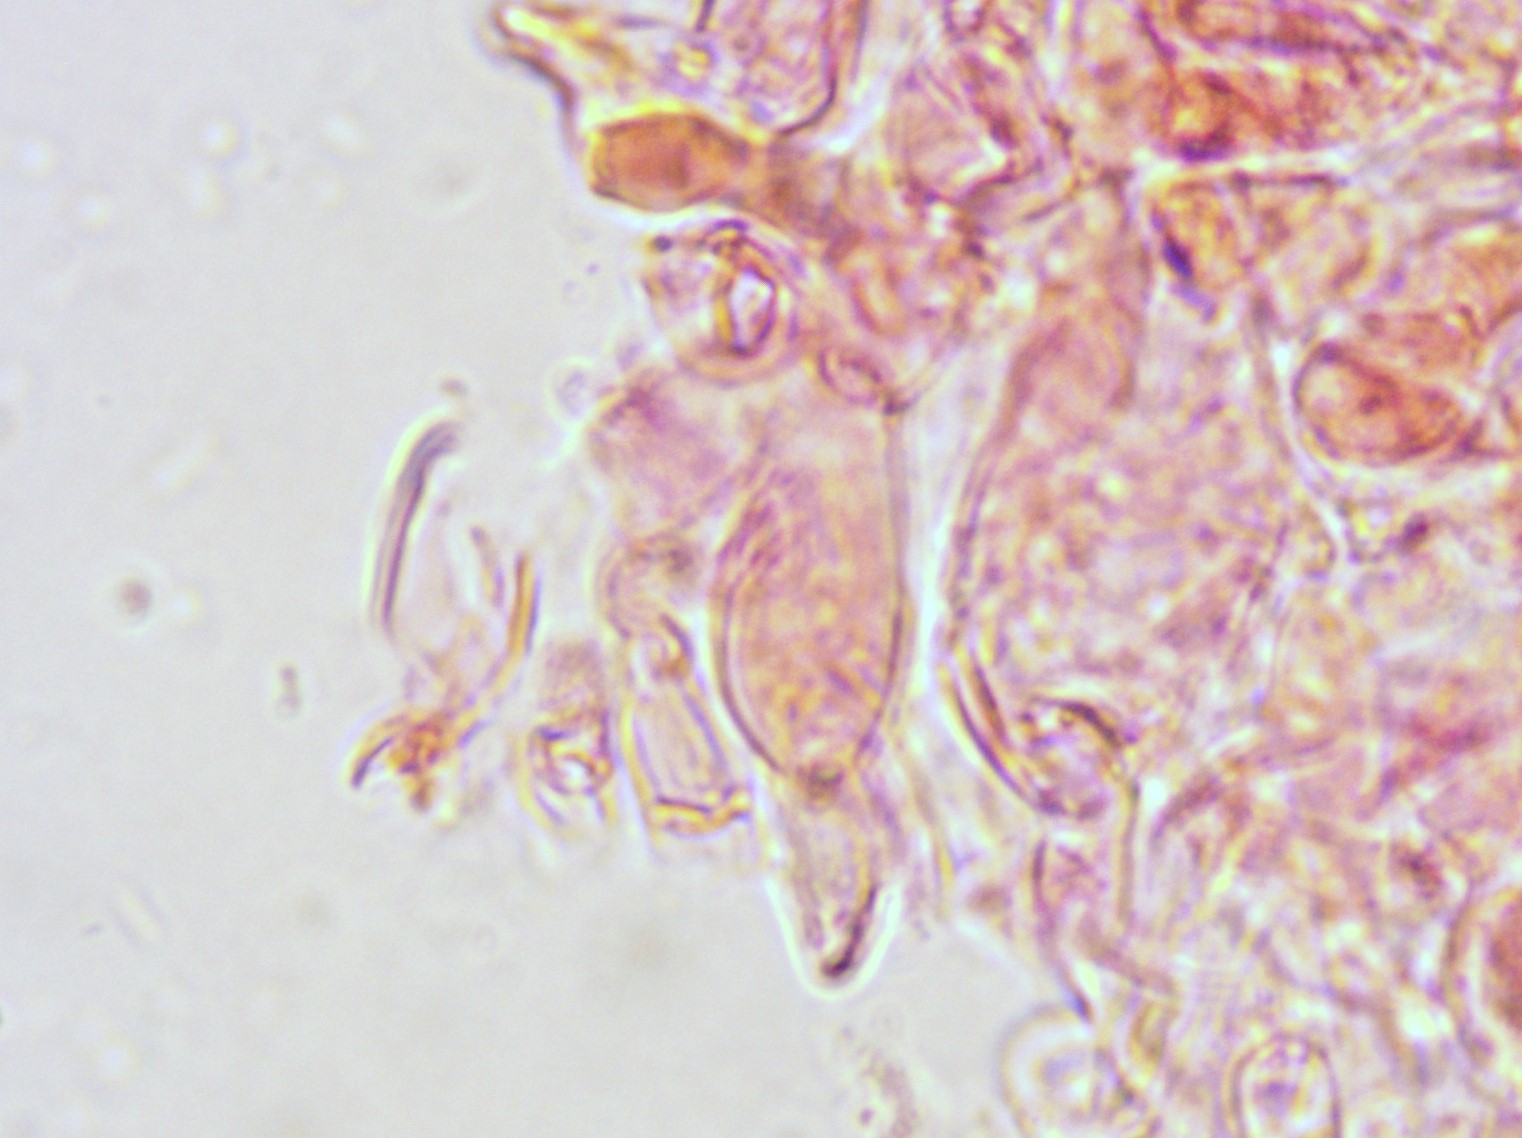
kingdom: Fungi
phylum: Basidiomycota
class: Agaricomycetes
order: Russulales
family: Russulaceae
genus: Russula
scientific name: Russula faustiana
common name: olivengrå skørhat
